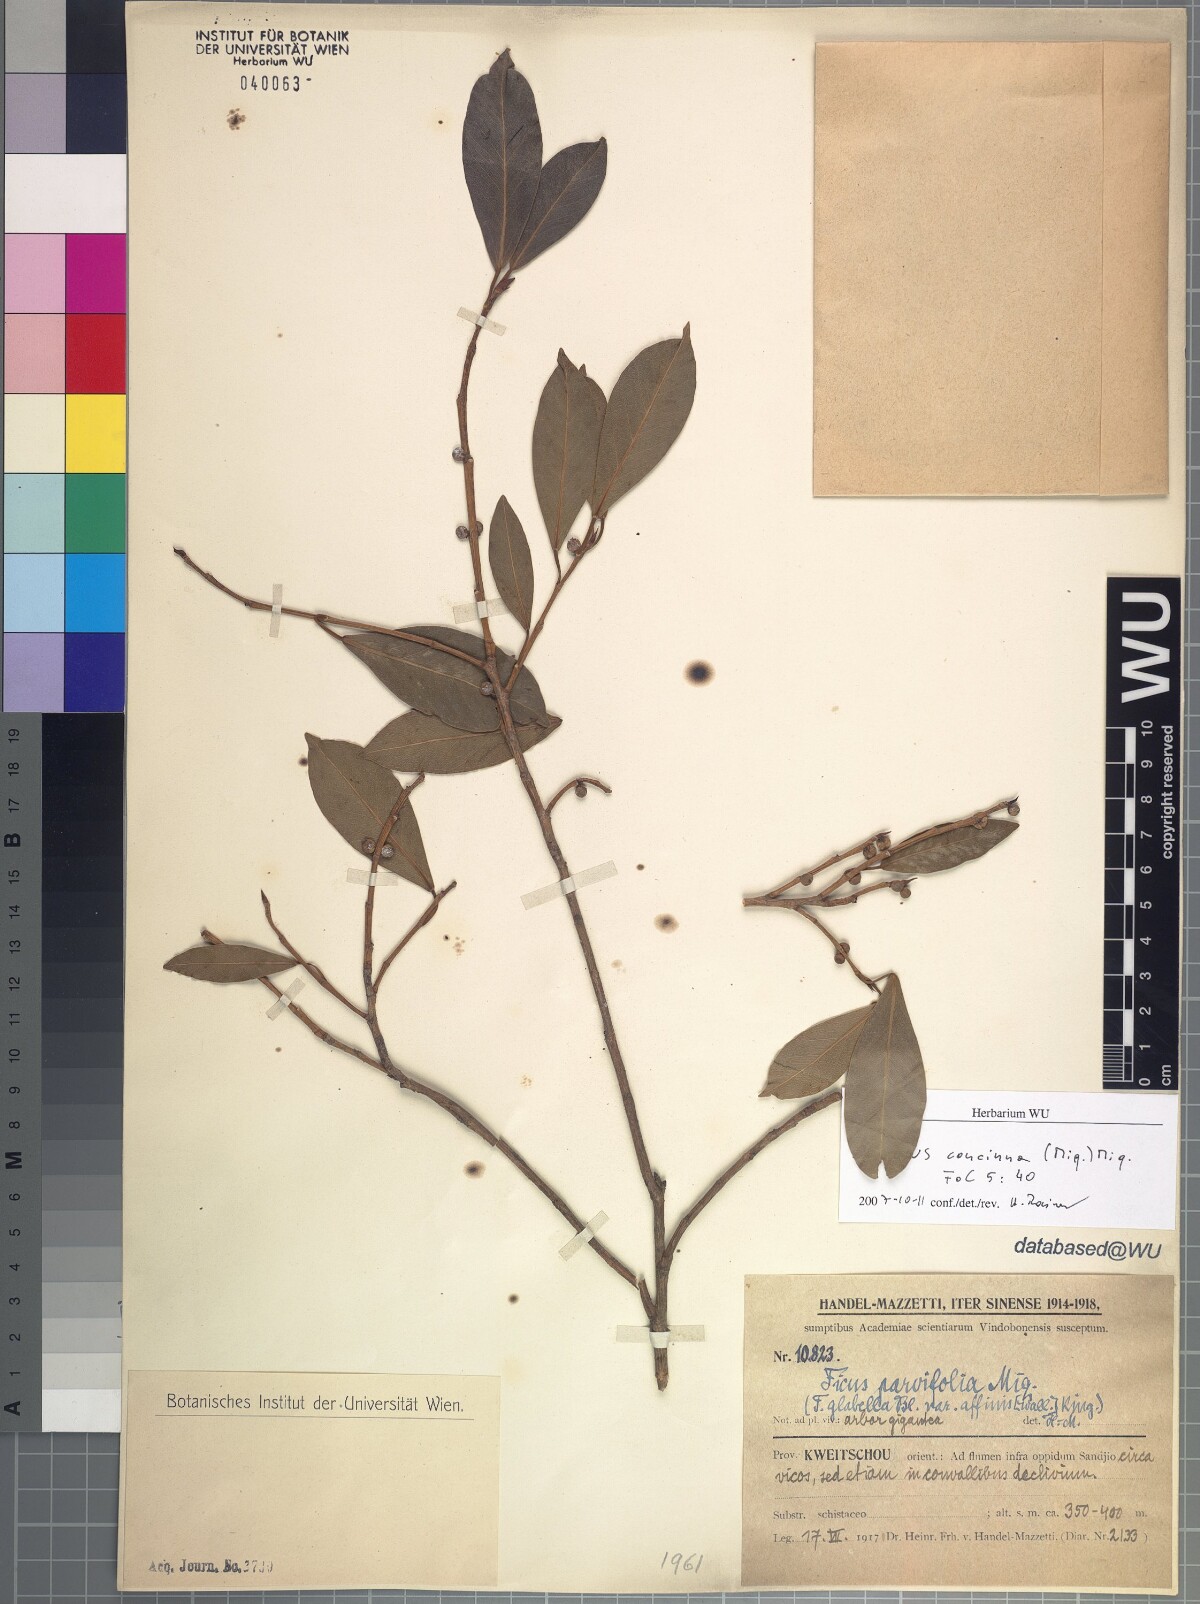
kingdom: Plantae
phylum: Tracheophyta
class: Magnoliopsida
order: Rosales
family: Moraceae
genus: Ficus
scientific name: Ficus concinna
